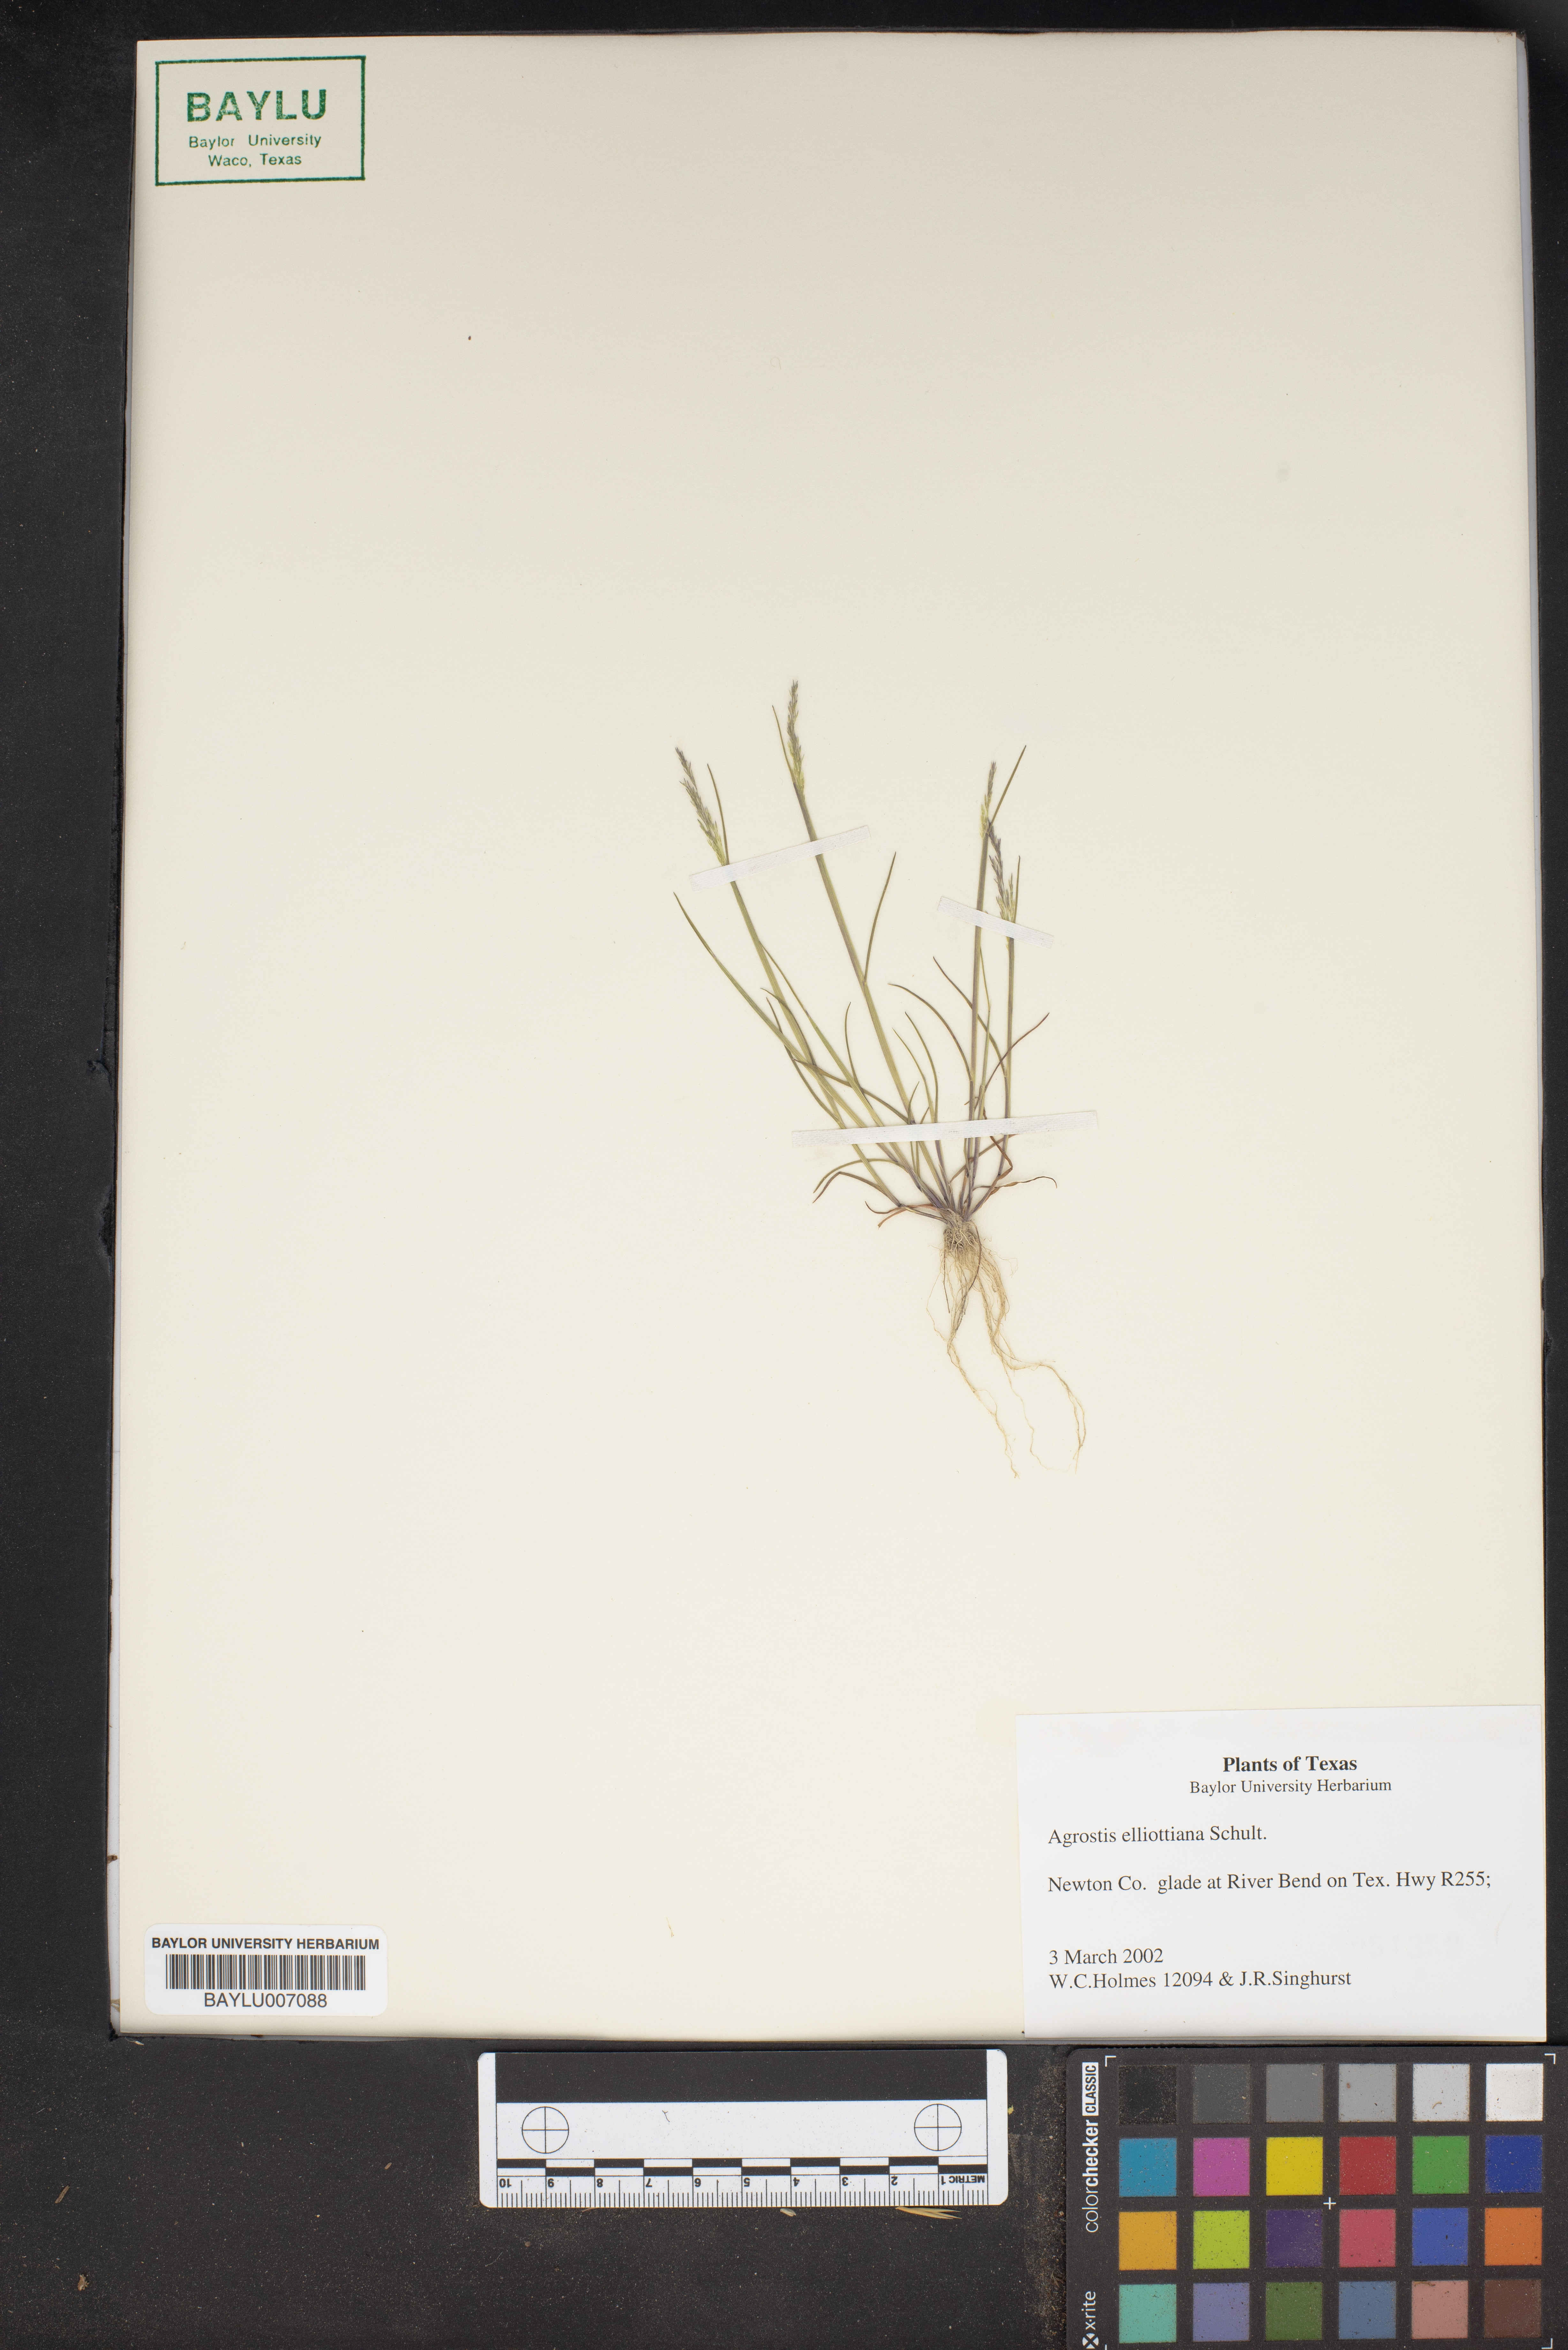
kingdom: Plantae
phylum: Tracheophyta
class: Liliopsida
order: Poales
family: Poaceae
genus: Agrostis
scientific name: Agrostis elliottiana
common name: Elliott's bent
